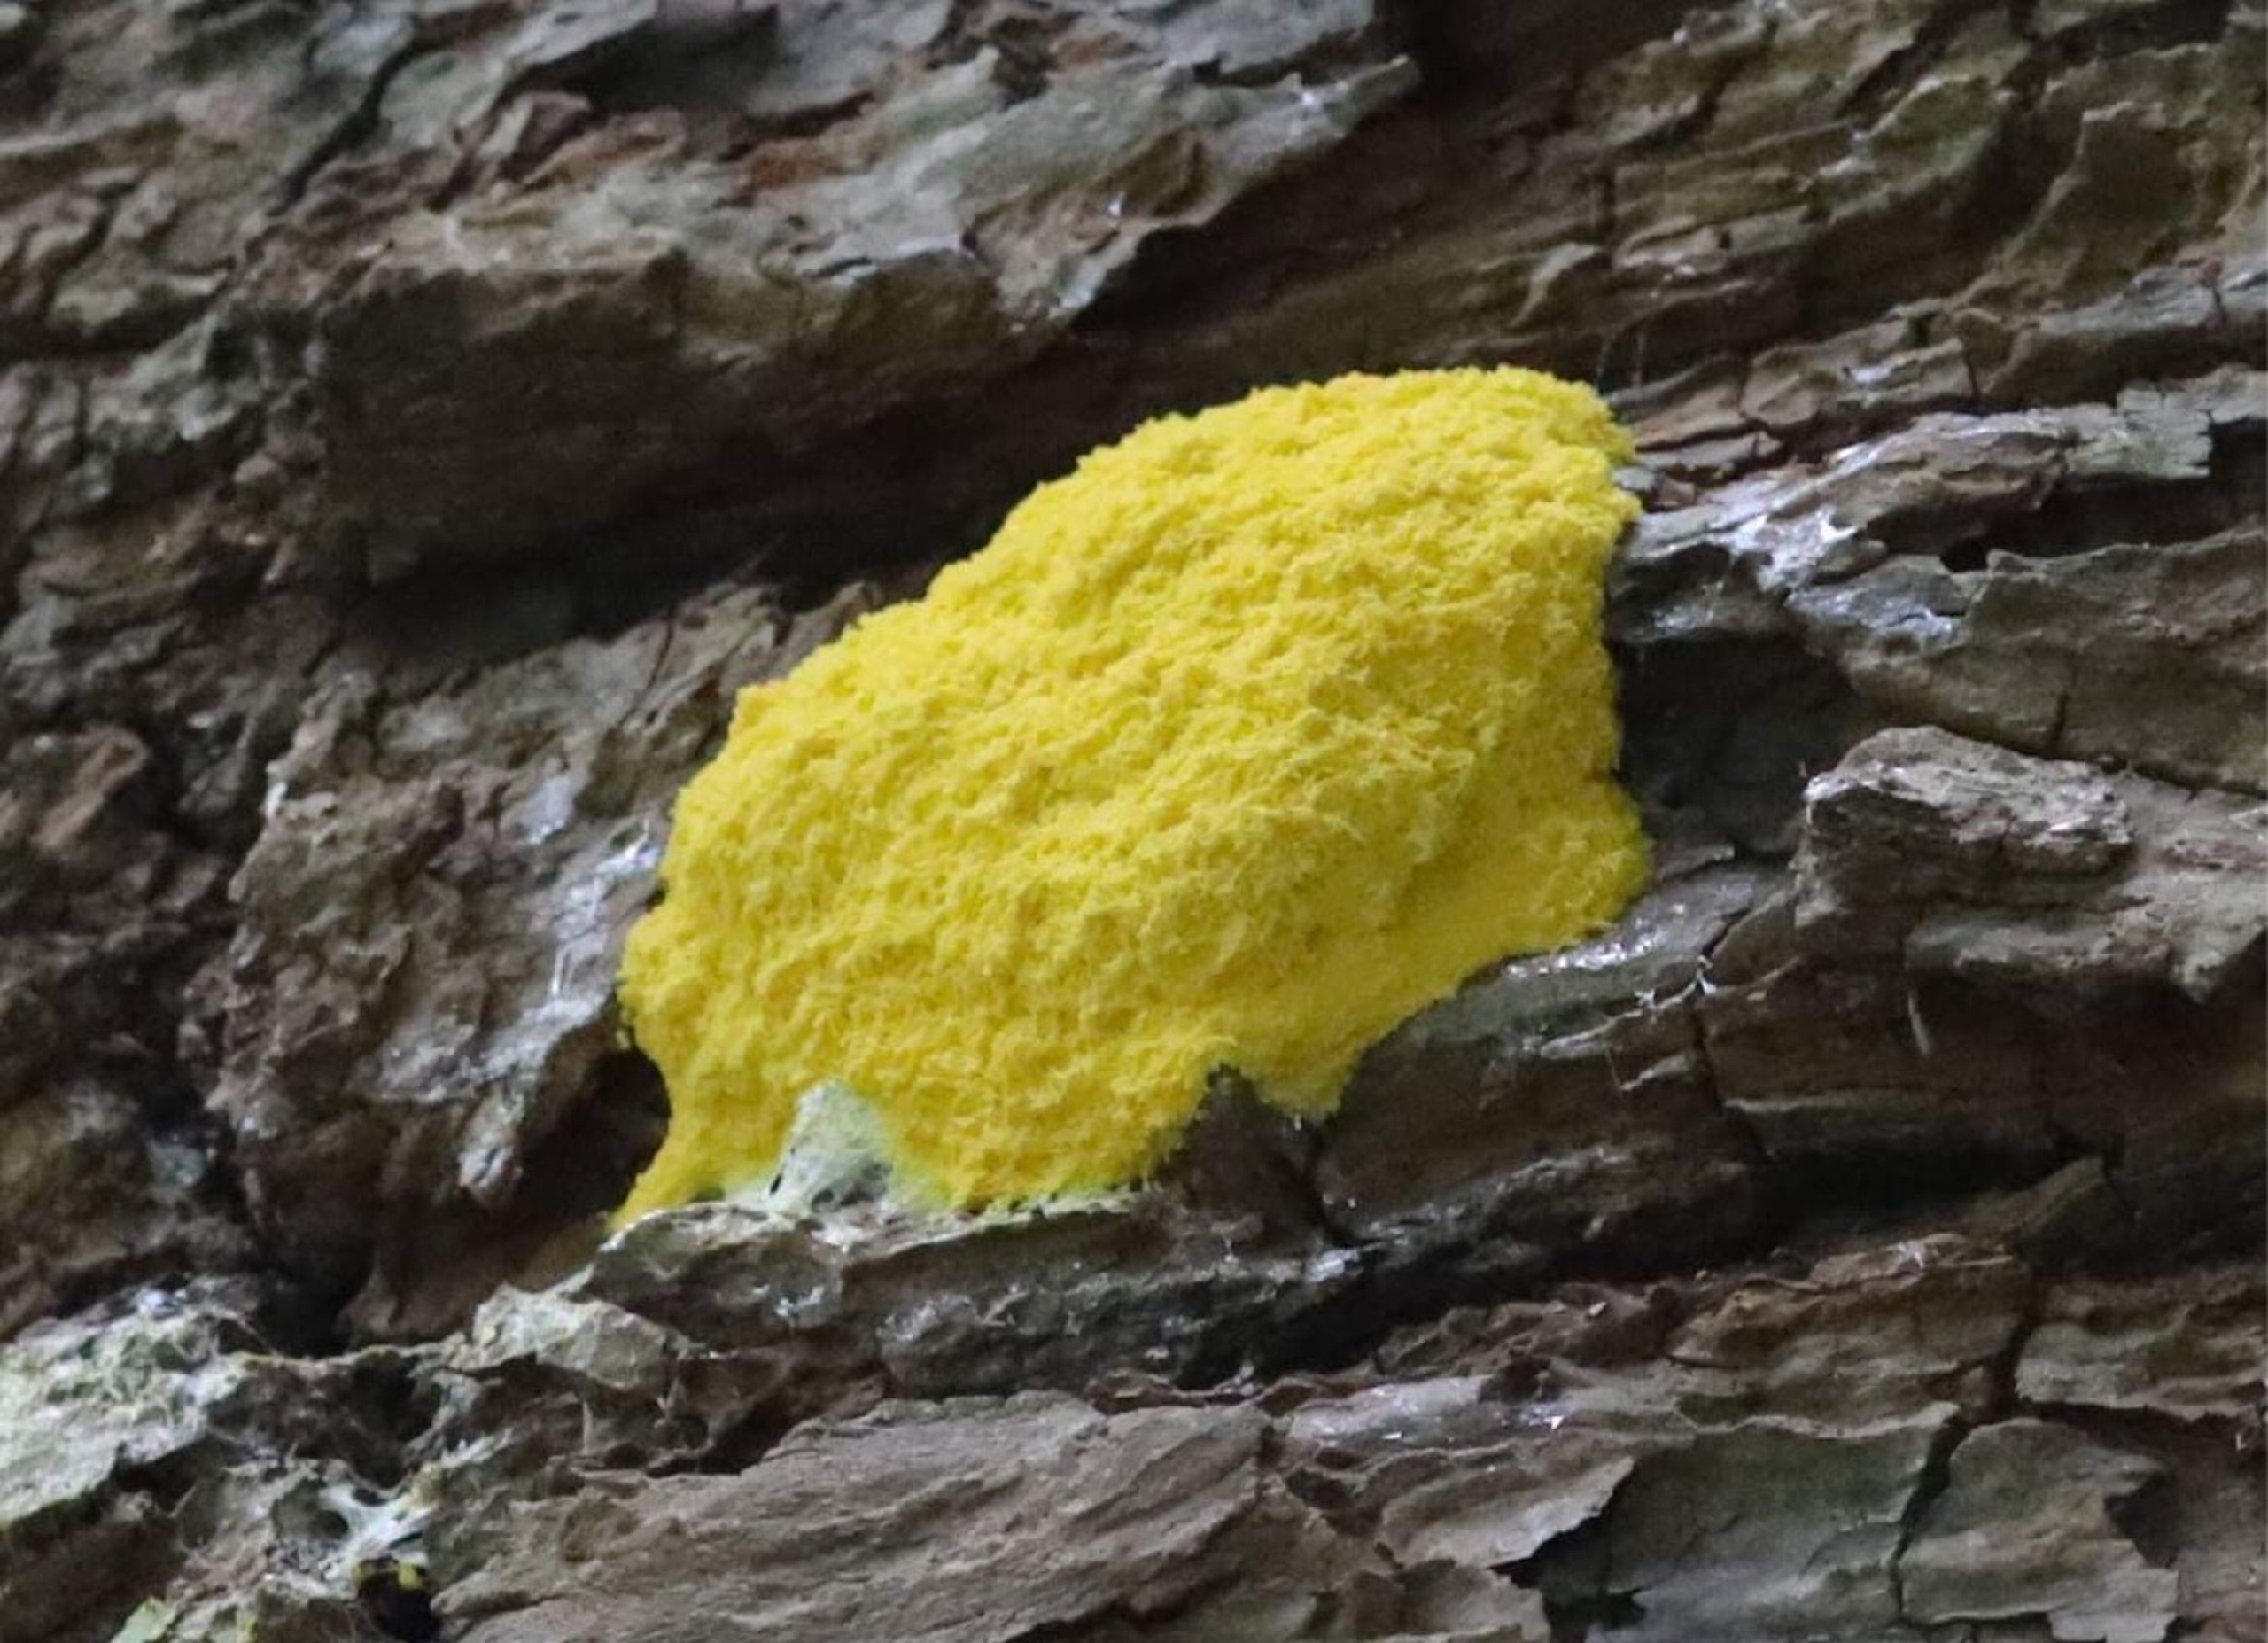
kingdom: Protozoa
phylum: Mycetozoa
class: Myxomycetes
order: Physarales
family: Physaraceae
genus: Fuligo
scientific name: Fuligo septica
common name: Gul troldsmør
